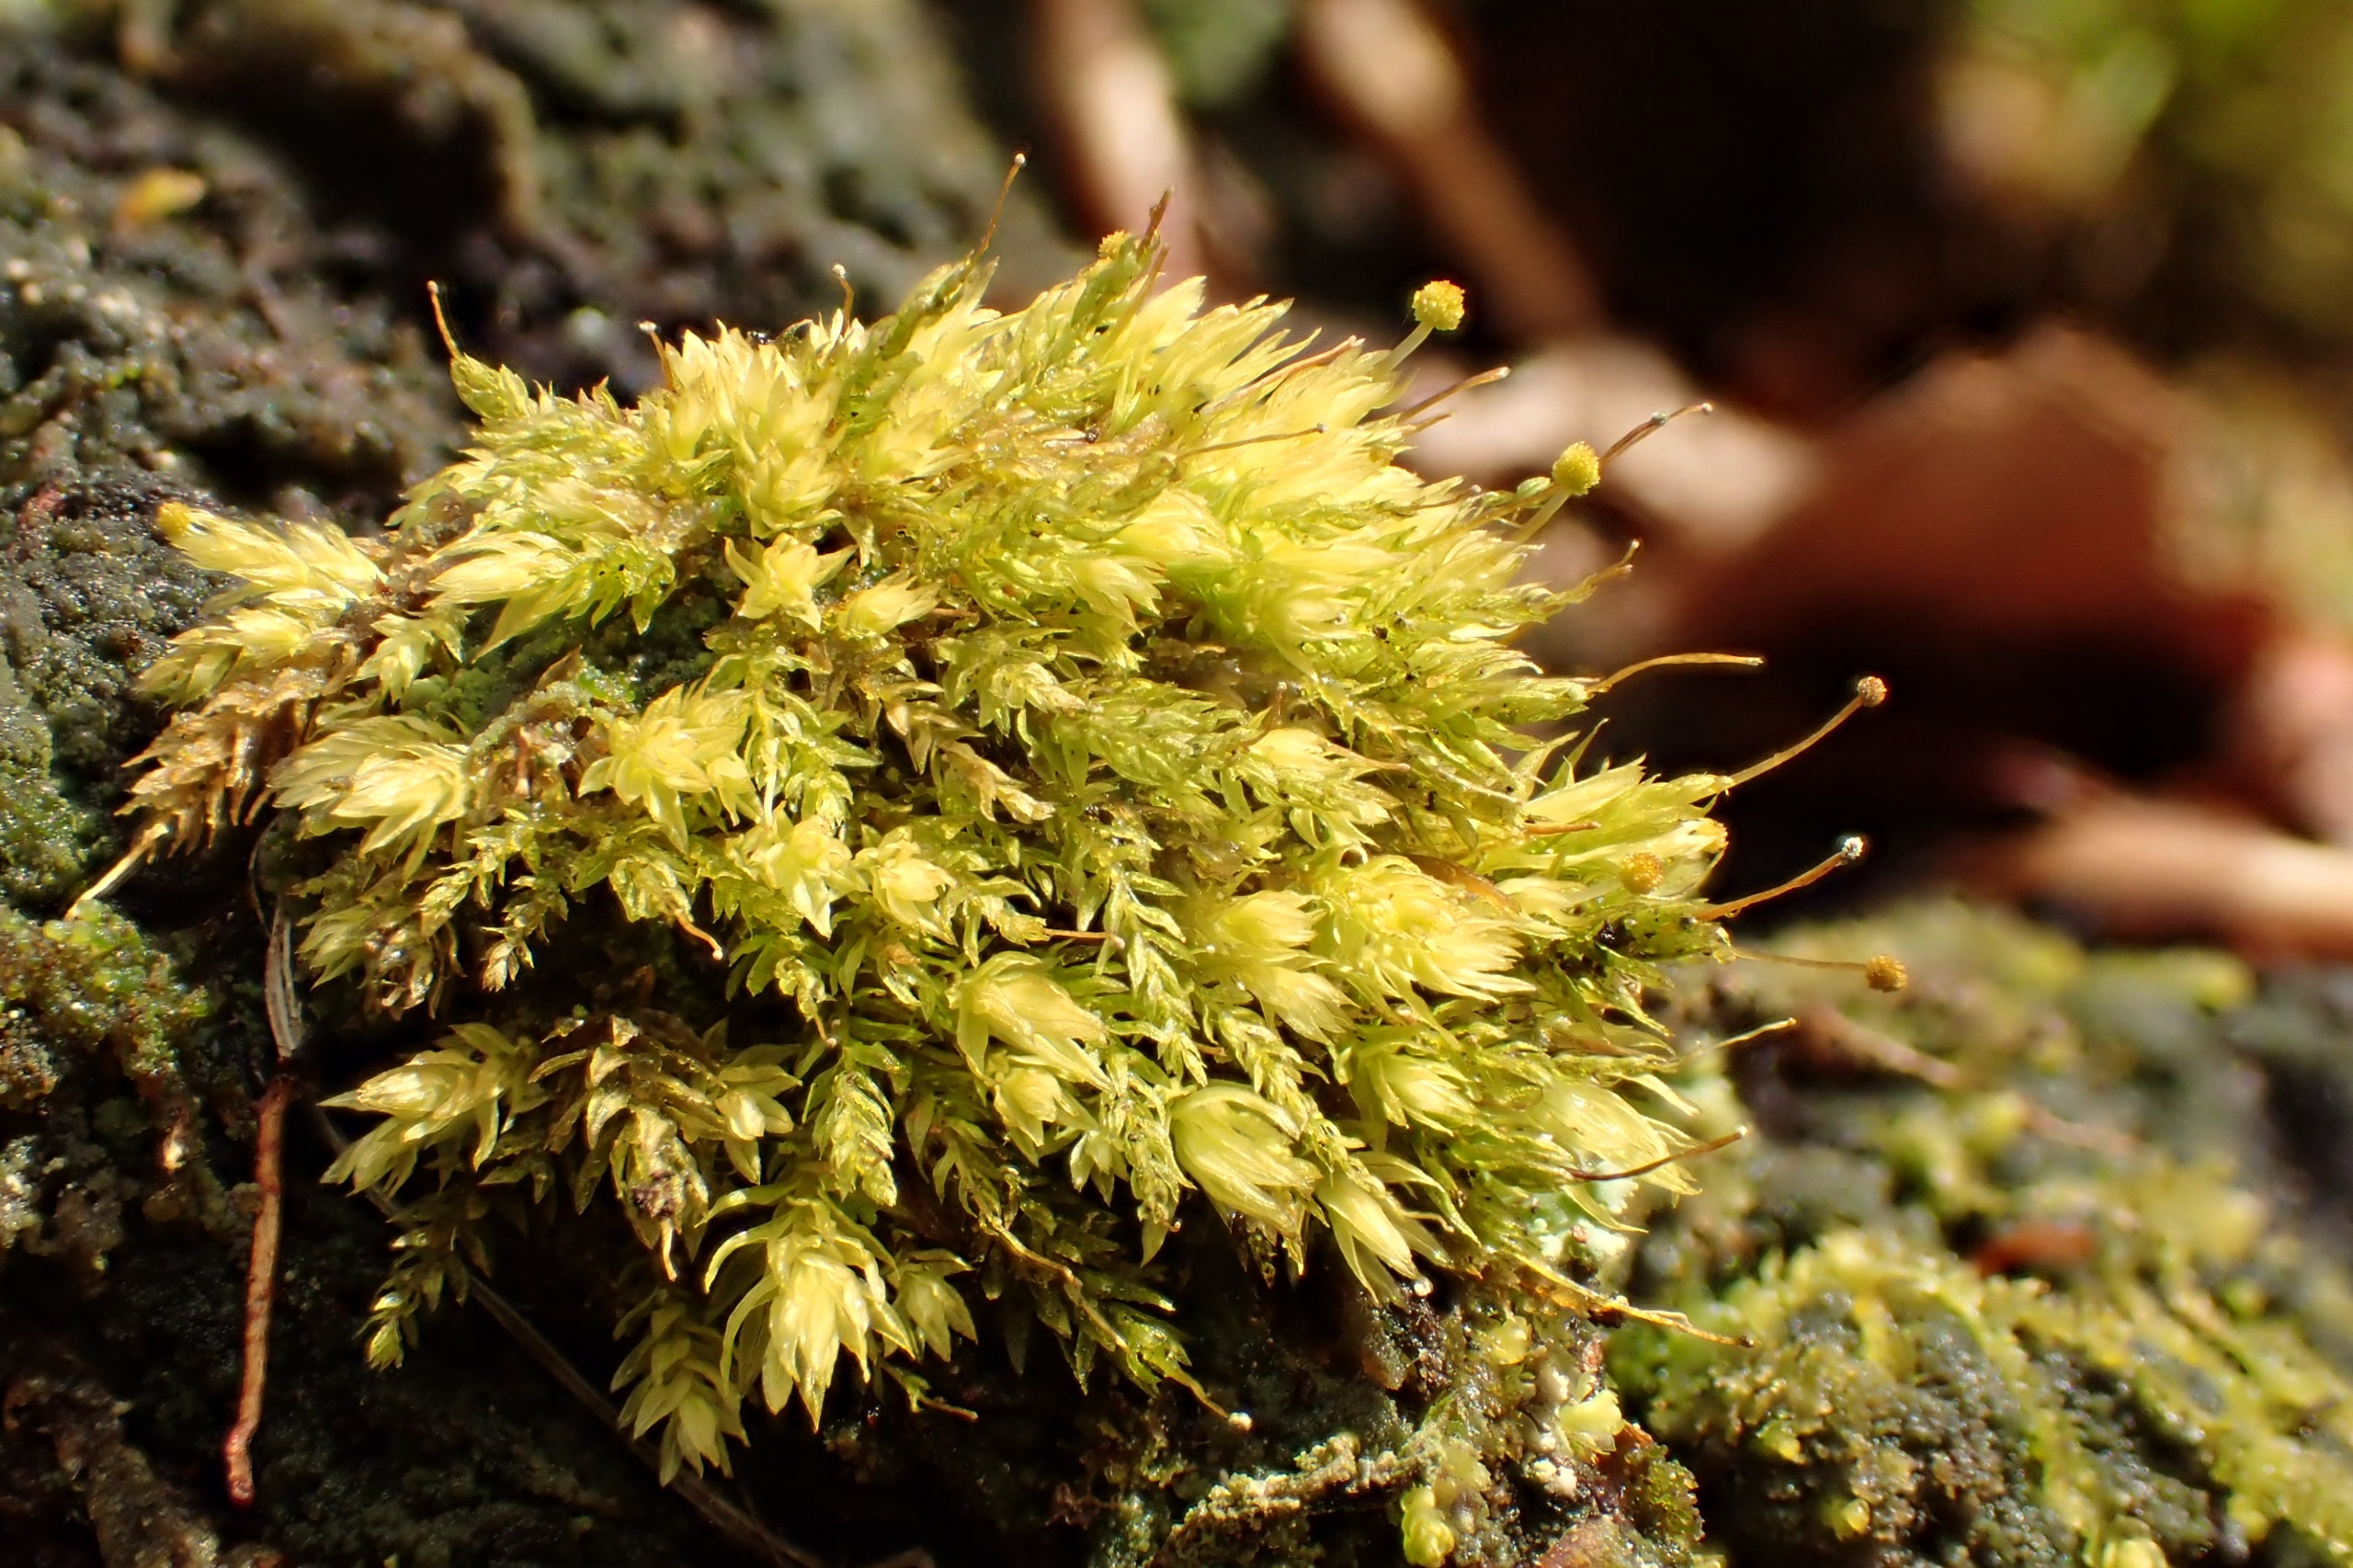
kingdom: Plantae
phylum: Bryophyta
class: Bryopsida
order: Aulacomniales
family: Aulacomniaceae
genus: Aulacomnium
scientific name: Aulacomnium androgynum
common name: Kugle-filtmos
